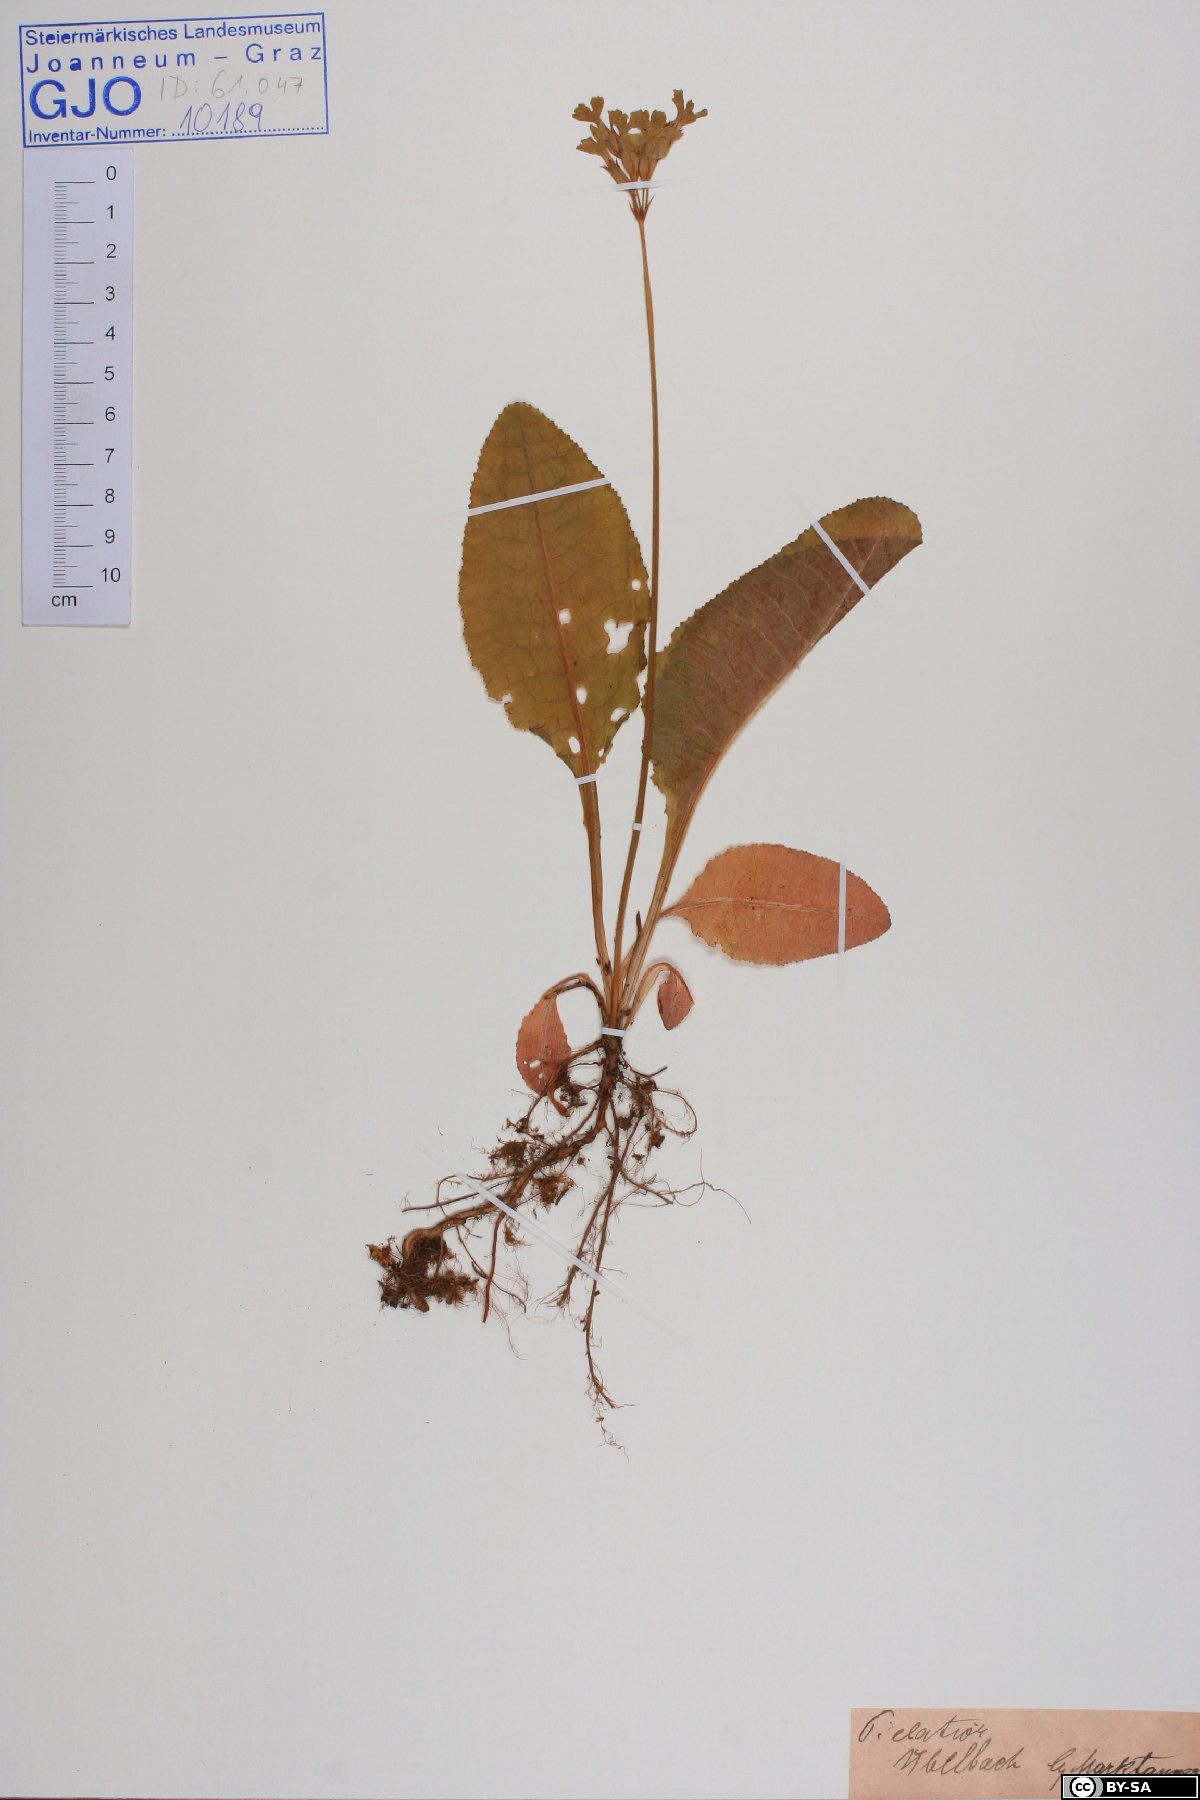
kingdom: Plantae
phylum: Tracheophyta
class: Magnoliopsida
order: Ericales
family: Primulaceae
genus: Primula
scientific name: Primula elatior
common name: Oxlip
